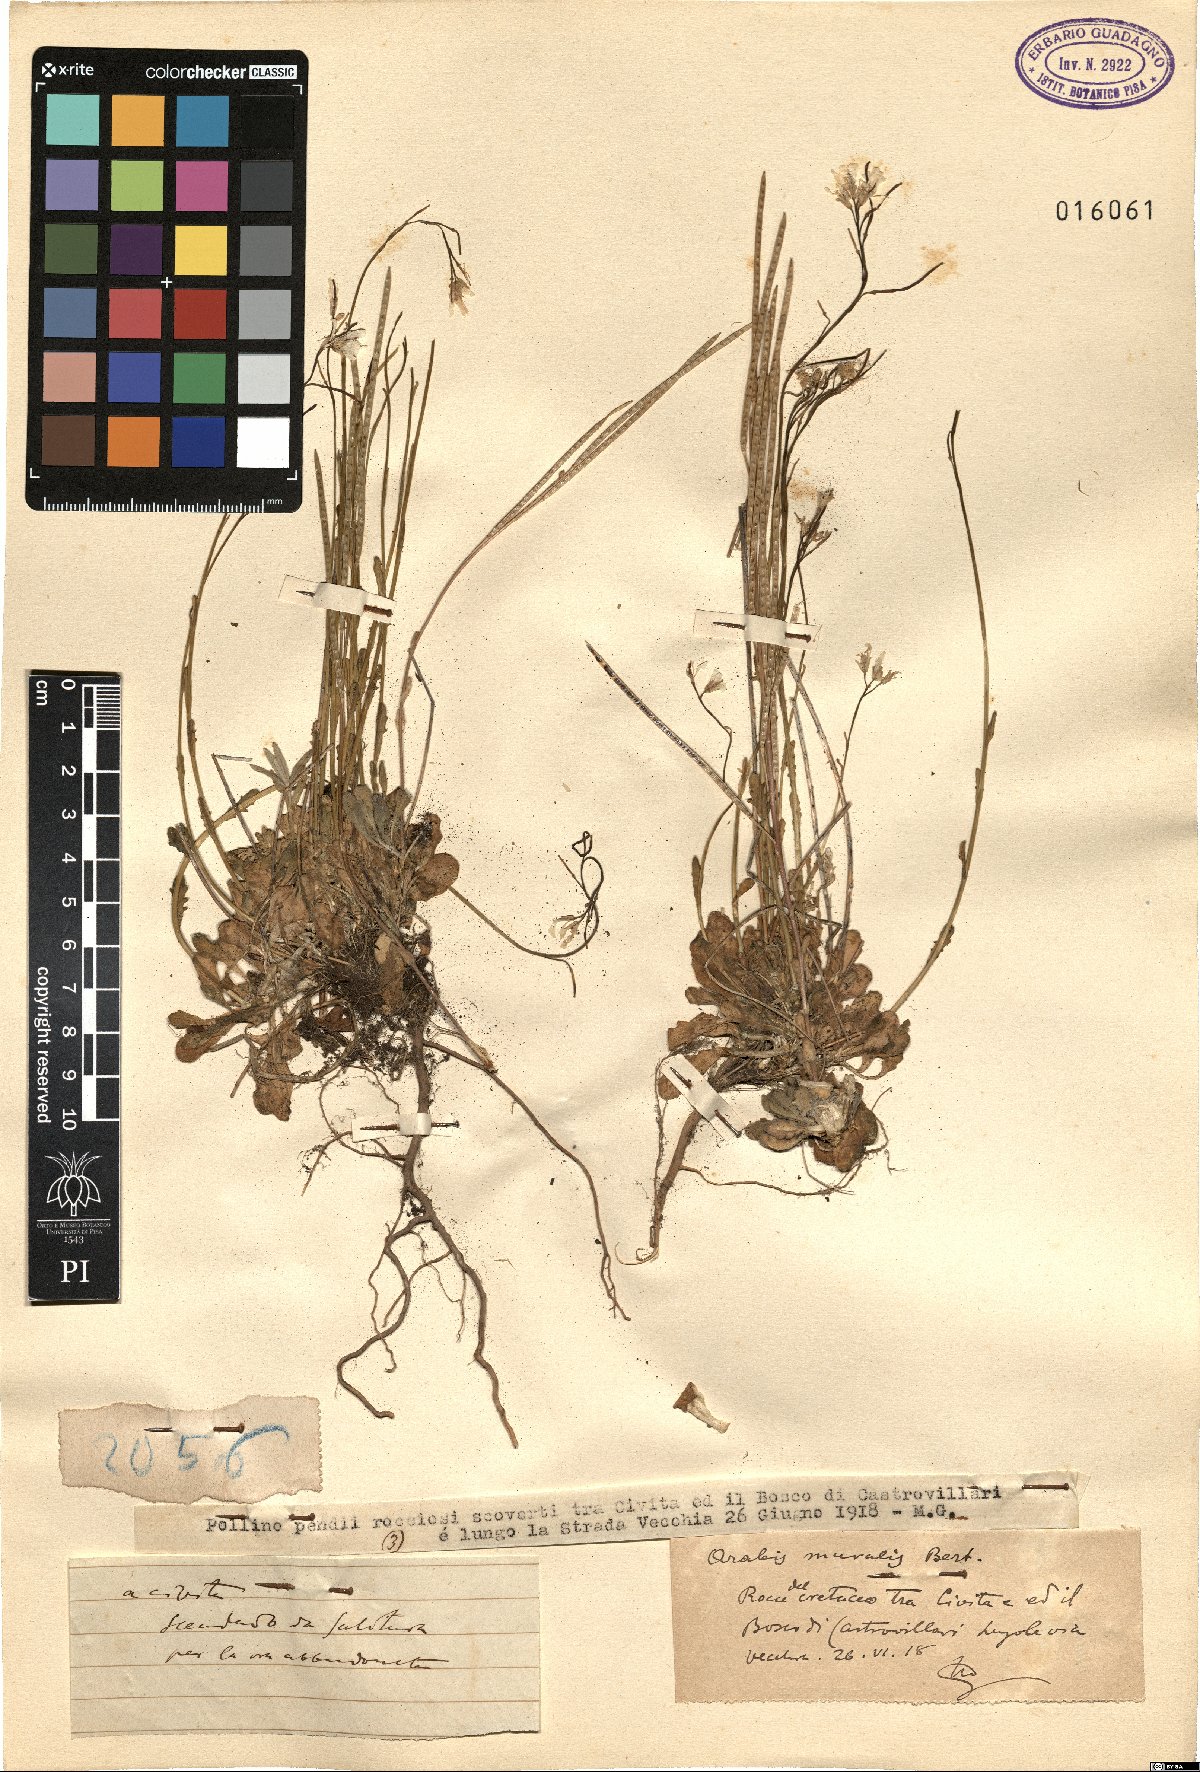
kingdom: Plantae
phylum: Tracheophyta
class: Magnoliopsida
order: Brassicales
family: Brassicaceae
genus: Arabis
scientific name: Arabis collina
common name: Rosy cress
